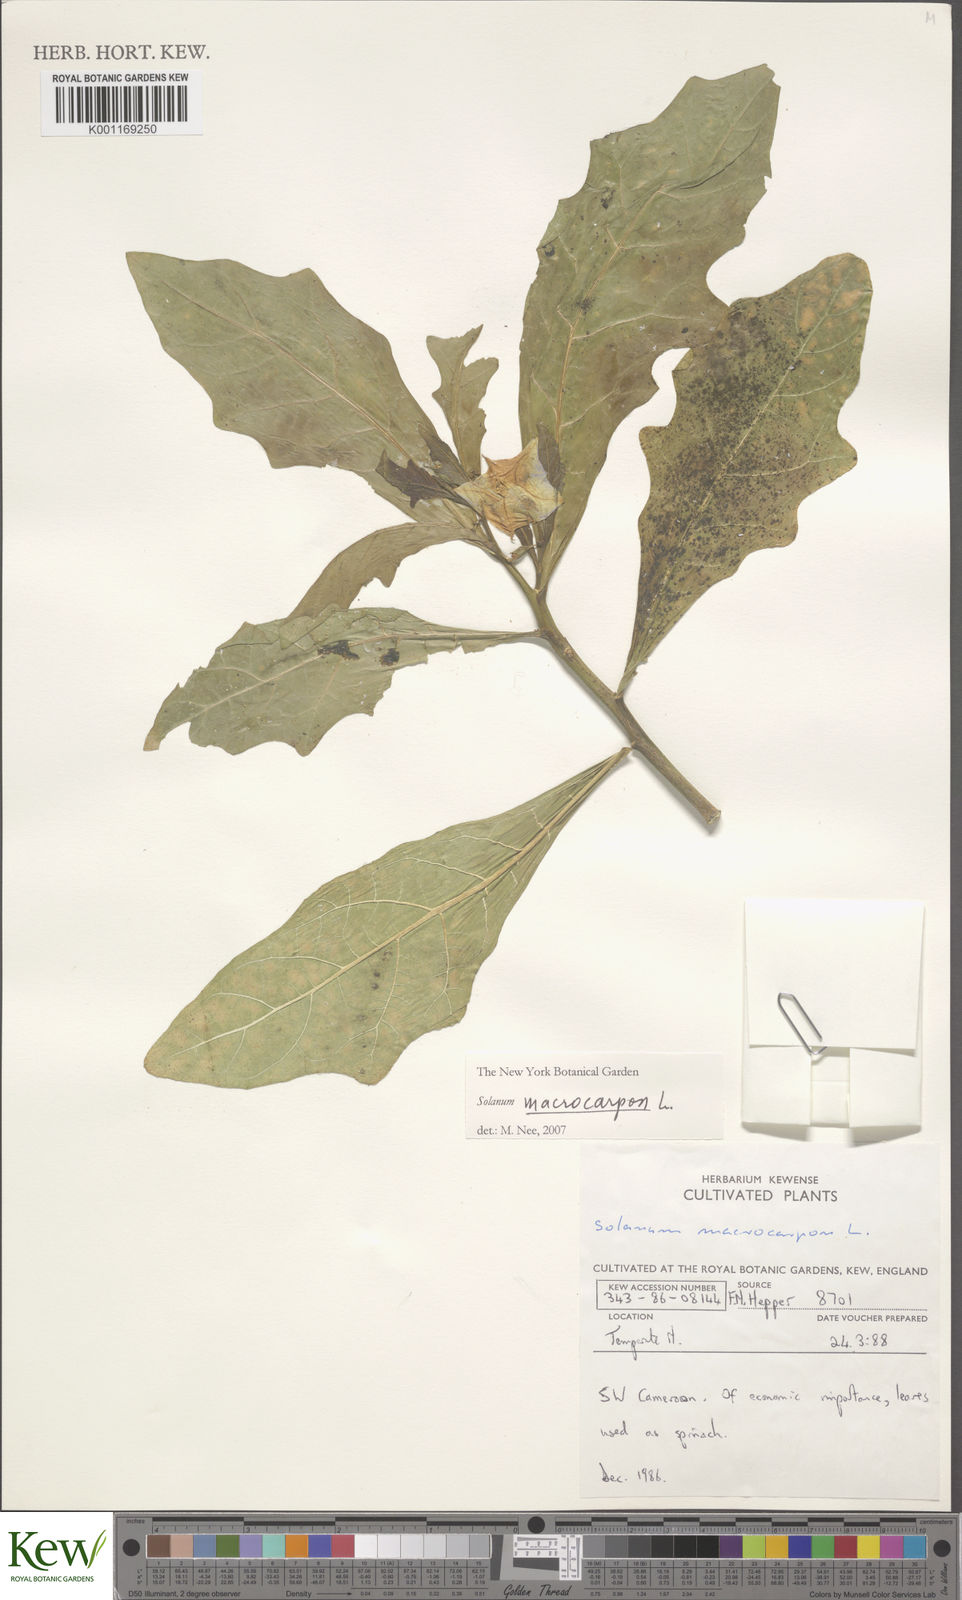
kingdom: Plantae
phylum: Tracheophyta
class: Magnoliopsida
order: Solanales
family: Solanaceae
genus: Solanum
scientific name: Solanum macrocarpon
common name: African eggplant
